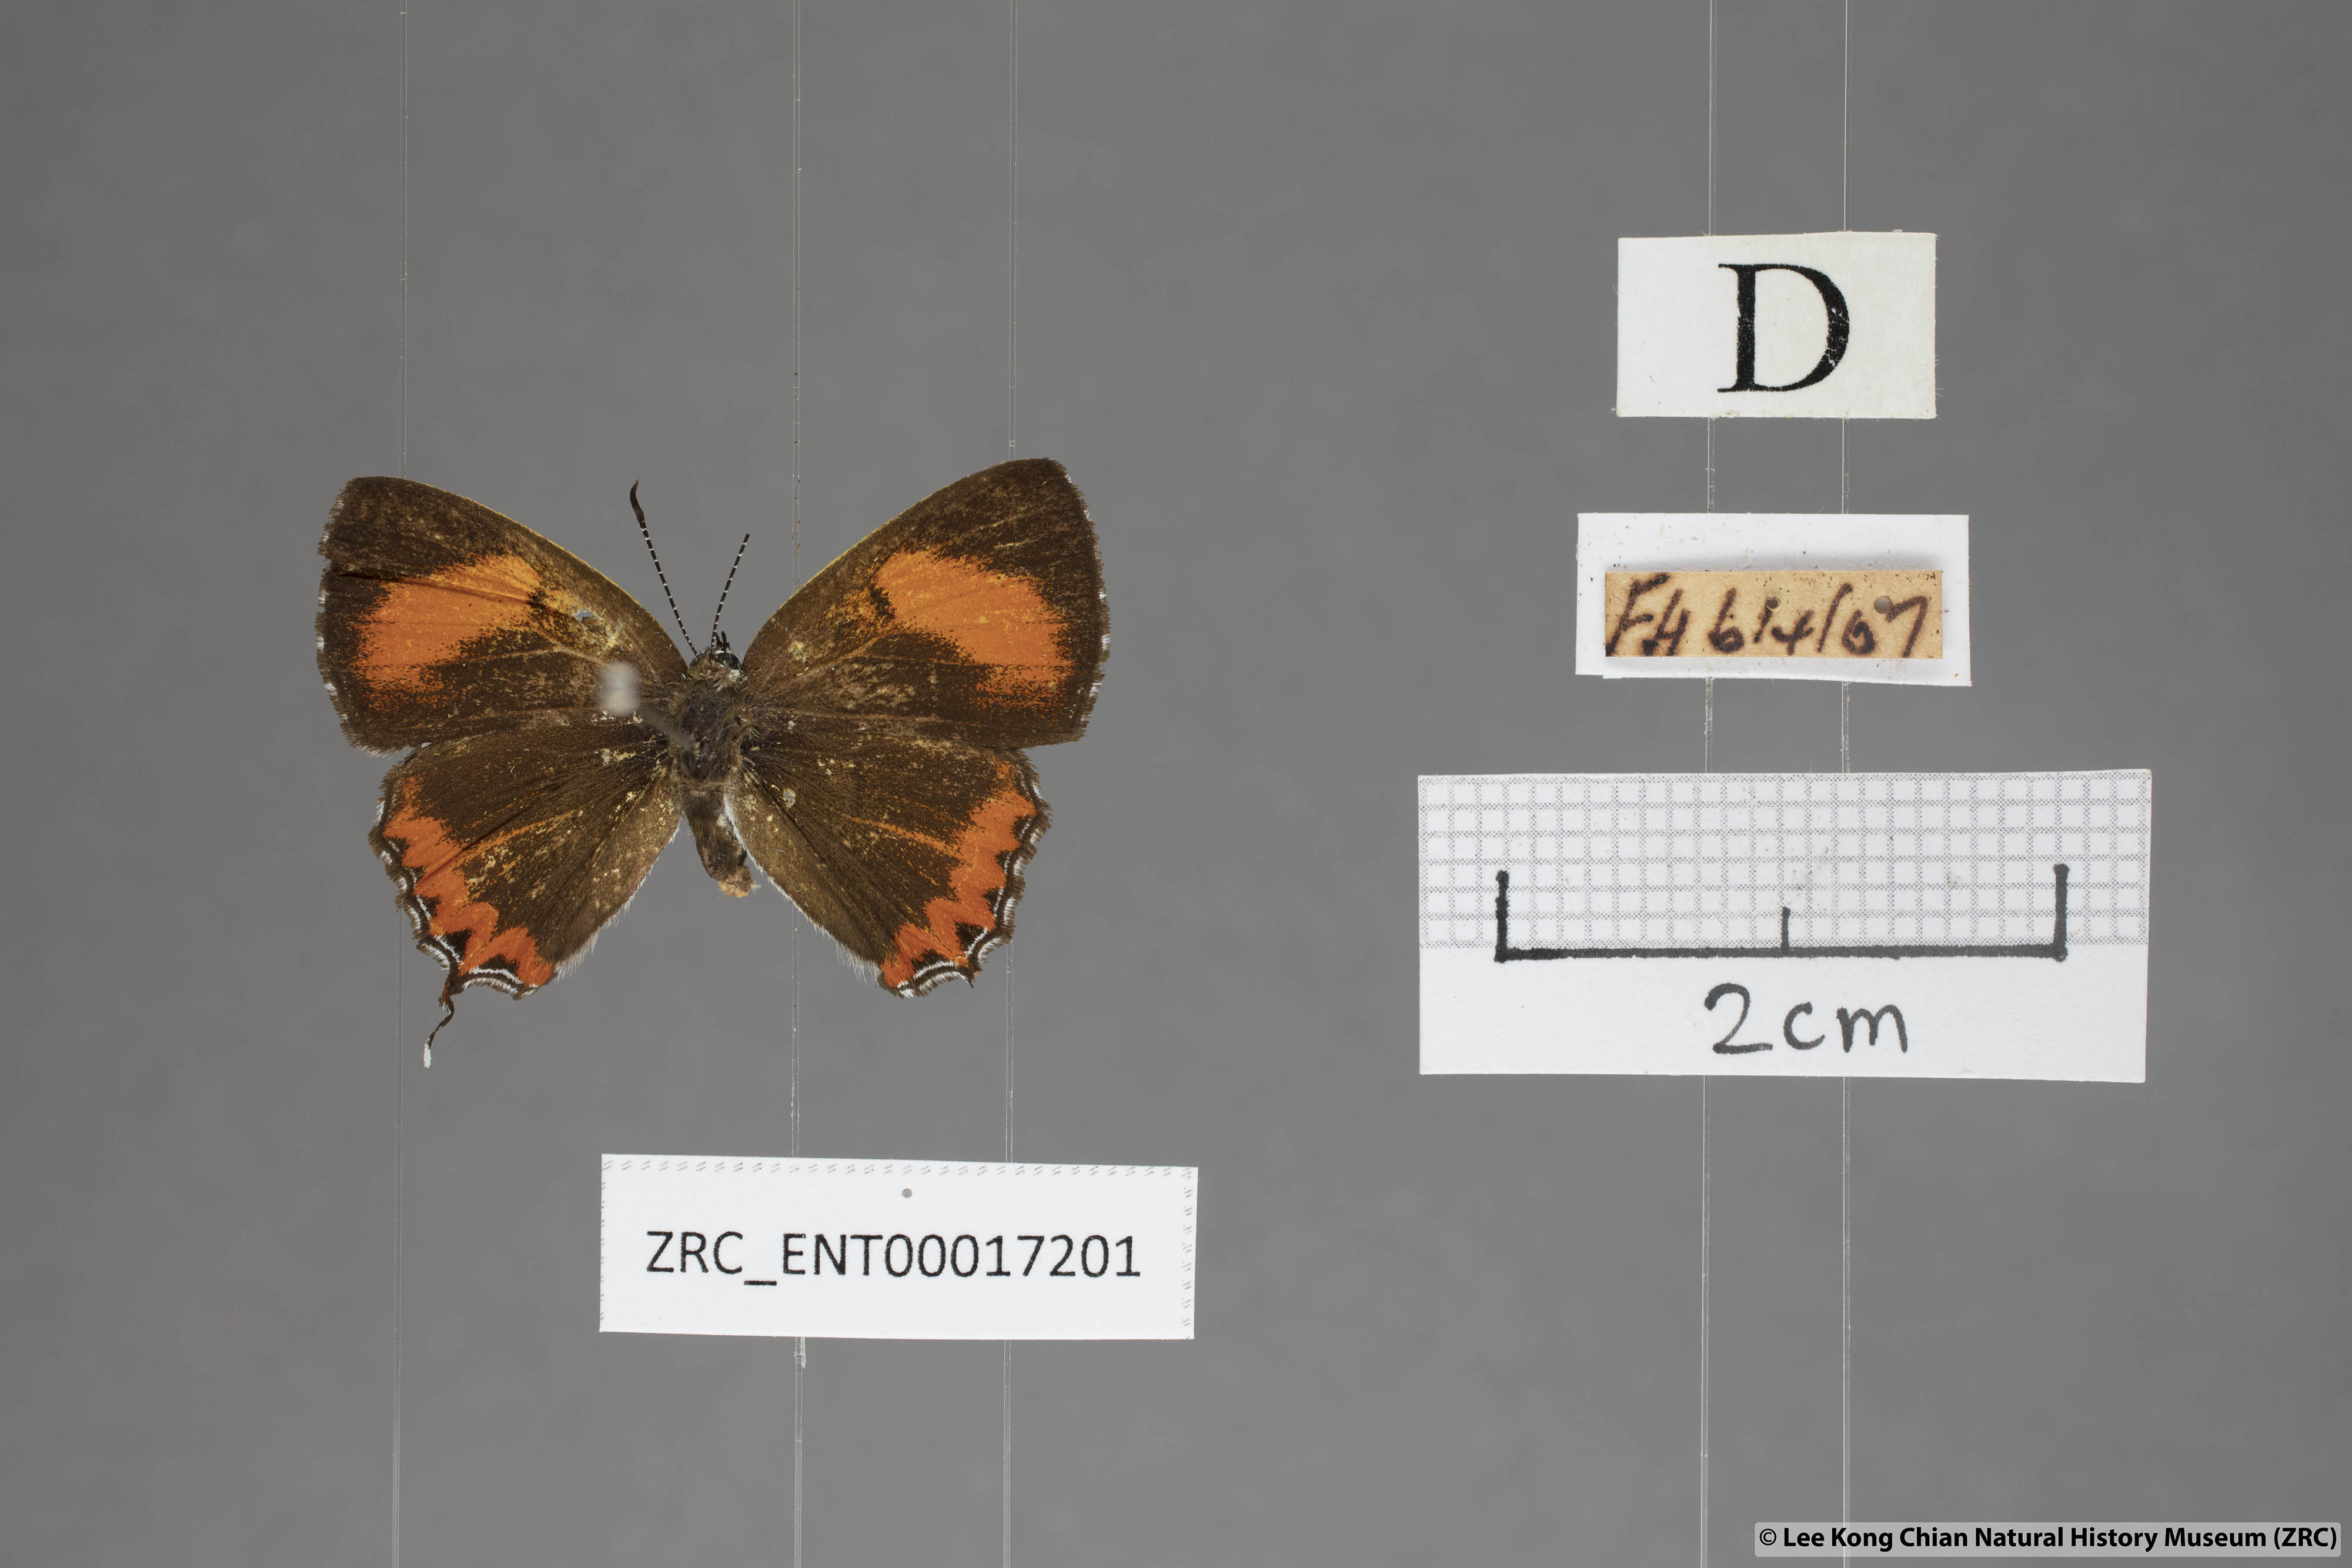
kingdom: Animalia
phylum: Arthropoda
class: Insecta
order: Lepidoptera
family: Lycaenidae
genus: Heliophorus
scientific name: Heliophorus epicles
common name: Purple sapphire
